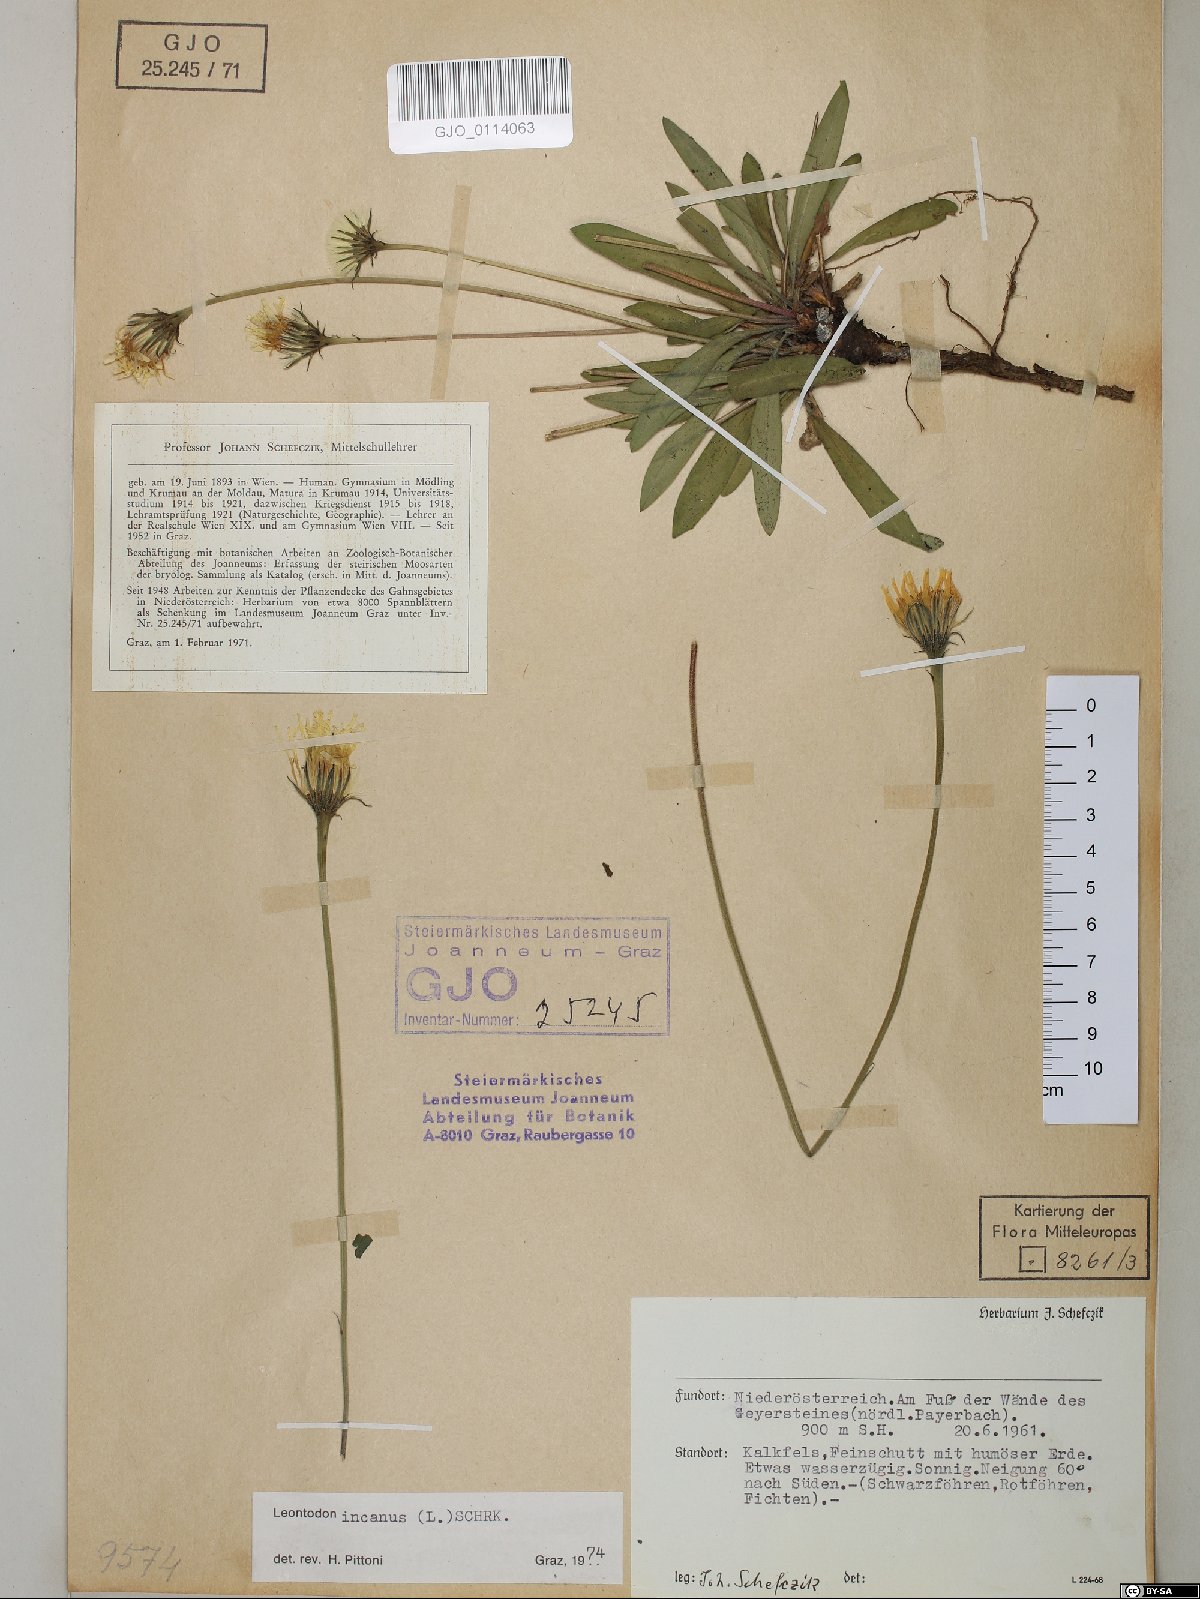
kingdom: Plantae
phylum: Tracheophyta
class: Magnoliopsida
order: Asterales
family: Asteraceae
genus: Leontodon
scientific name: Leontodon incanus
